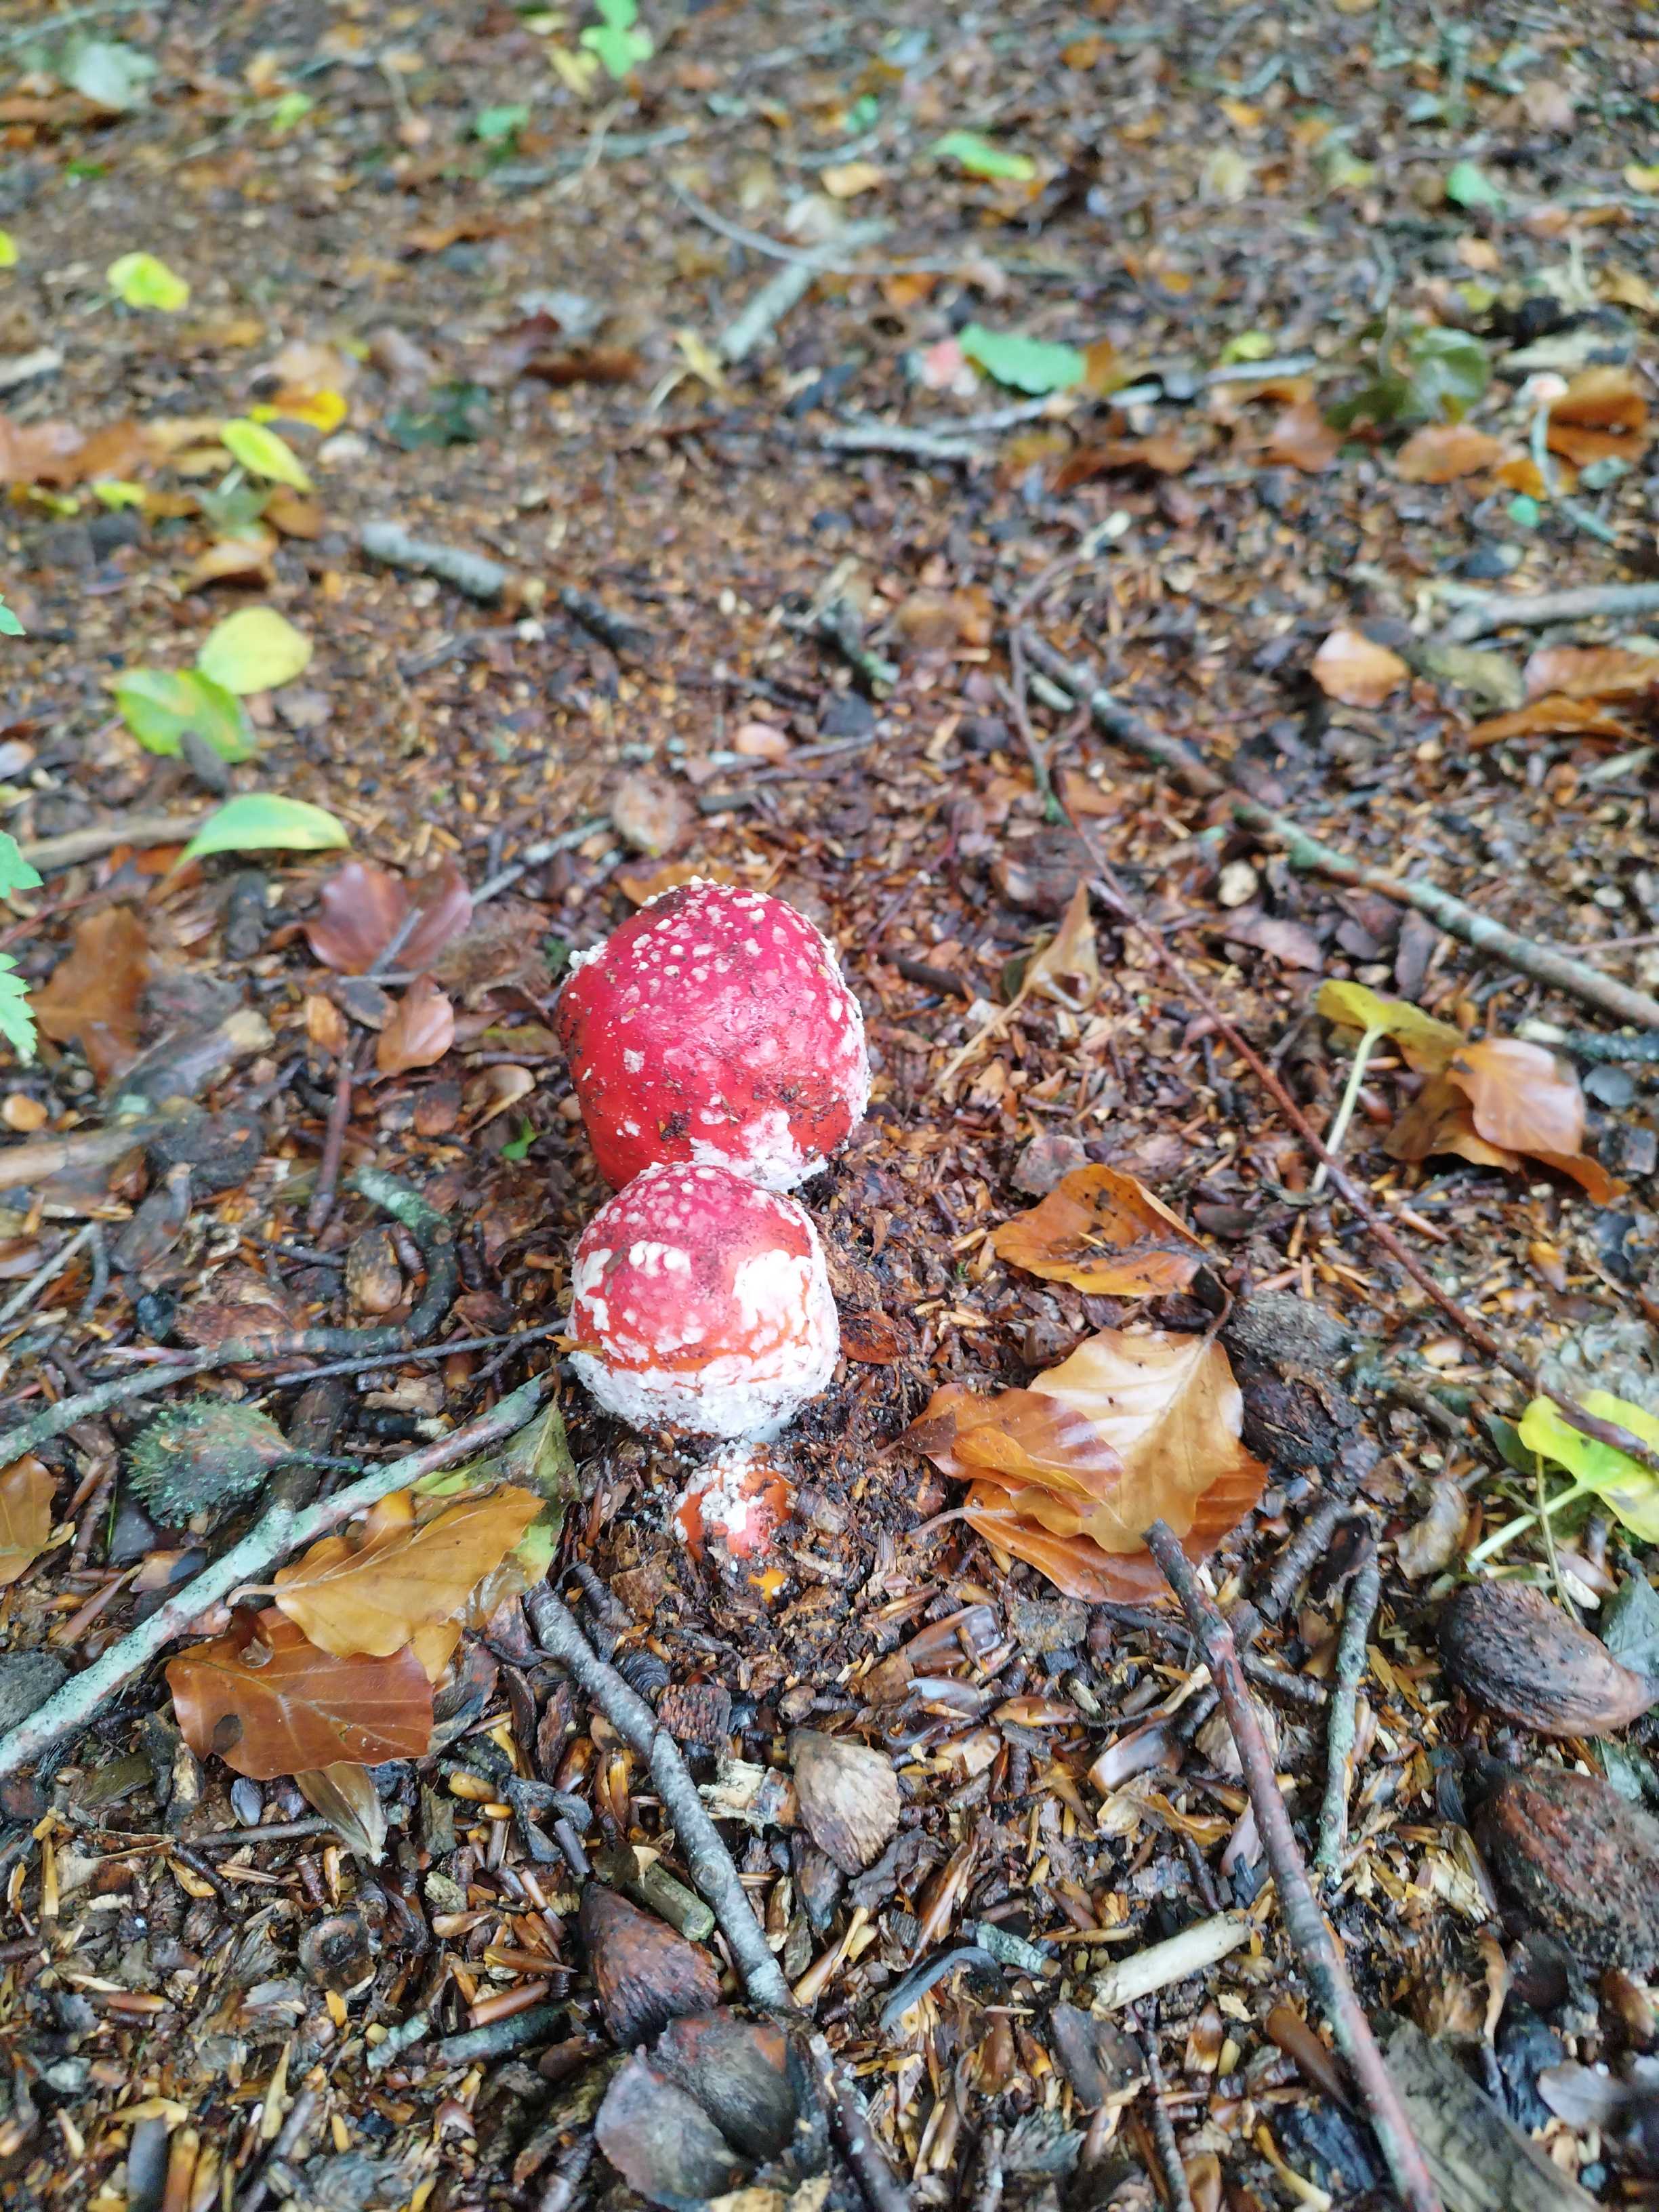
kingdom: Fungi
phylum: Basidiomycota
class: Agaricomycetes
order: Agaricales
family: Amanitaceae
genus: Amanita
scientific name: Amanita muscaria
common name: rød fluesvamp
